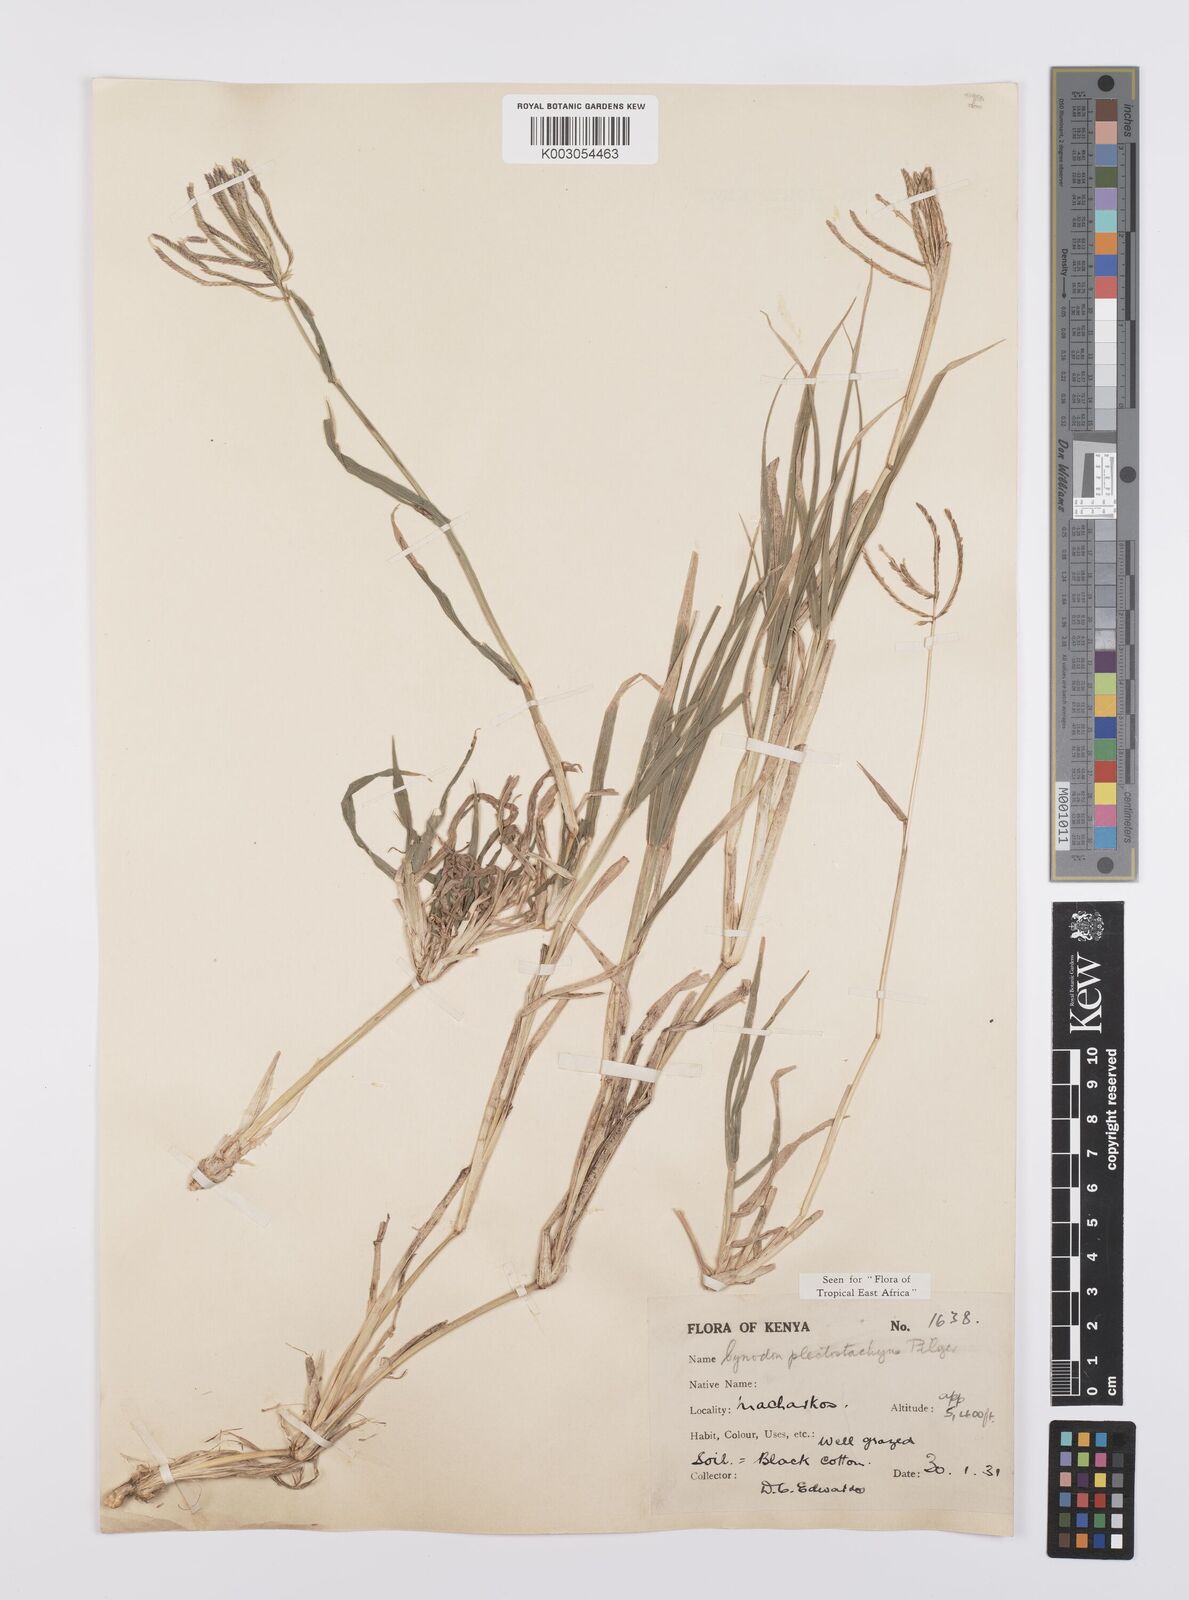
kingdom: Plantae
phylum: Tracheophyta
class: Liliopsida
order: Poales
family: Poaceae
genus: Cynodon
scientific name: Cynodon plectostachyus
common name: Stargrass
